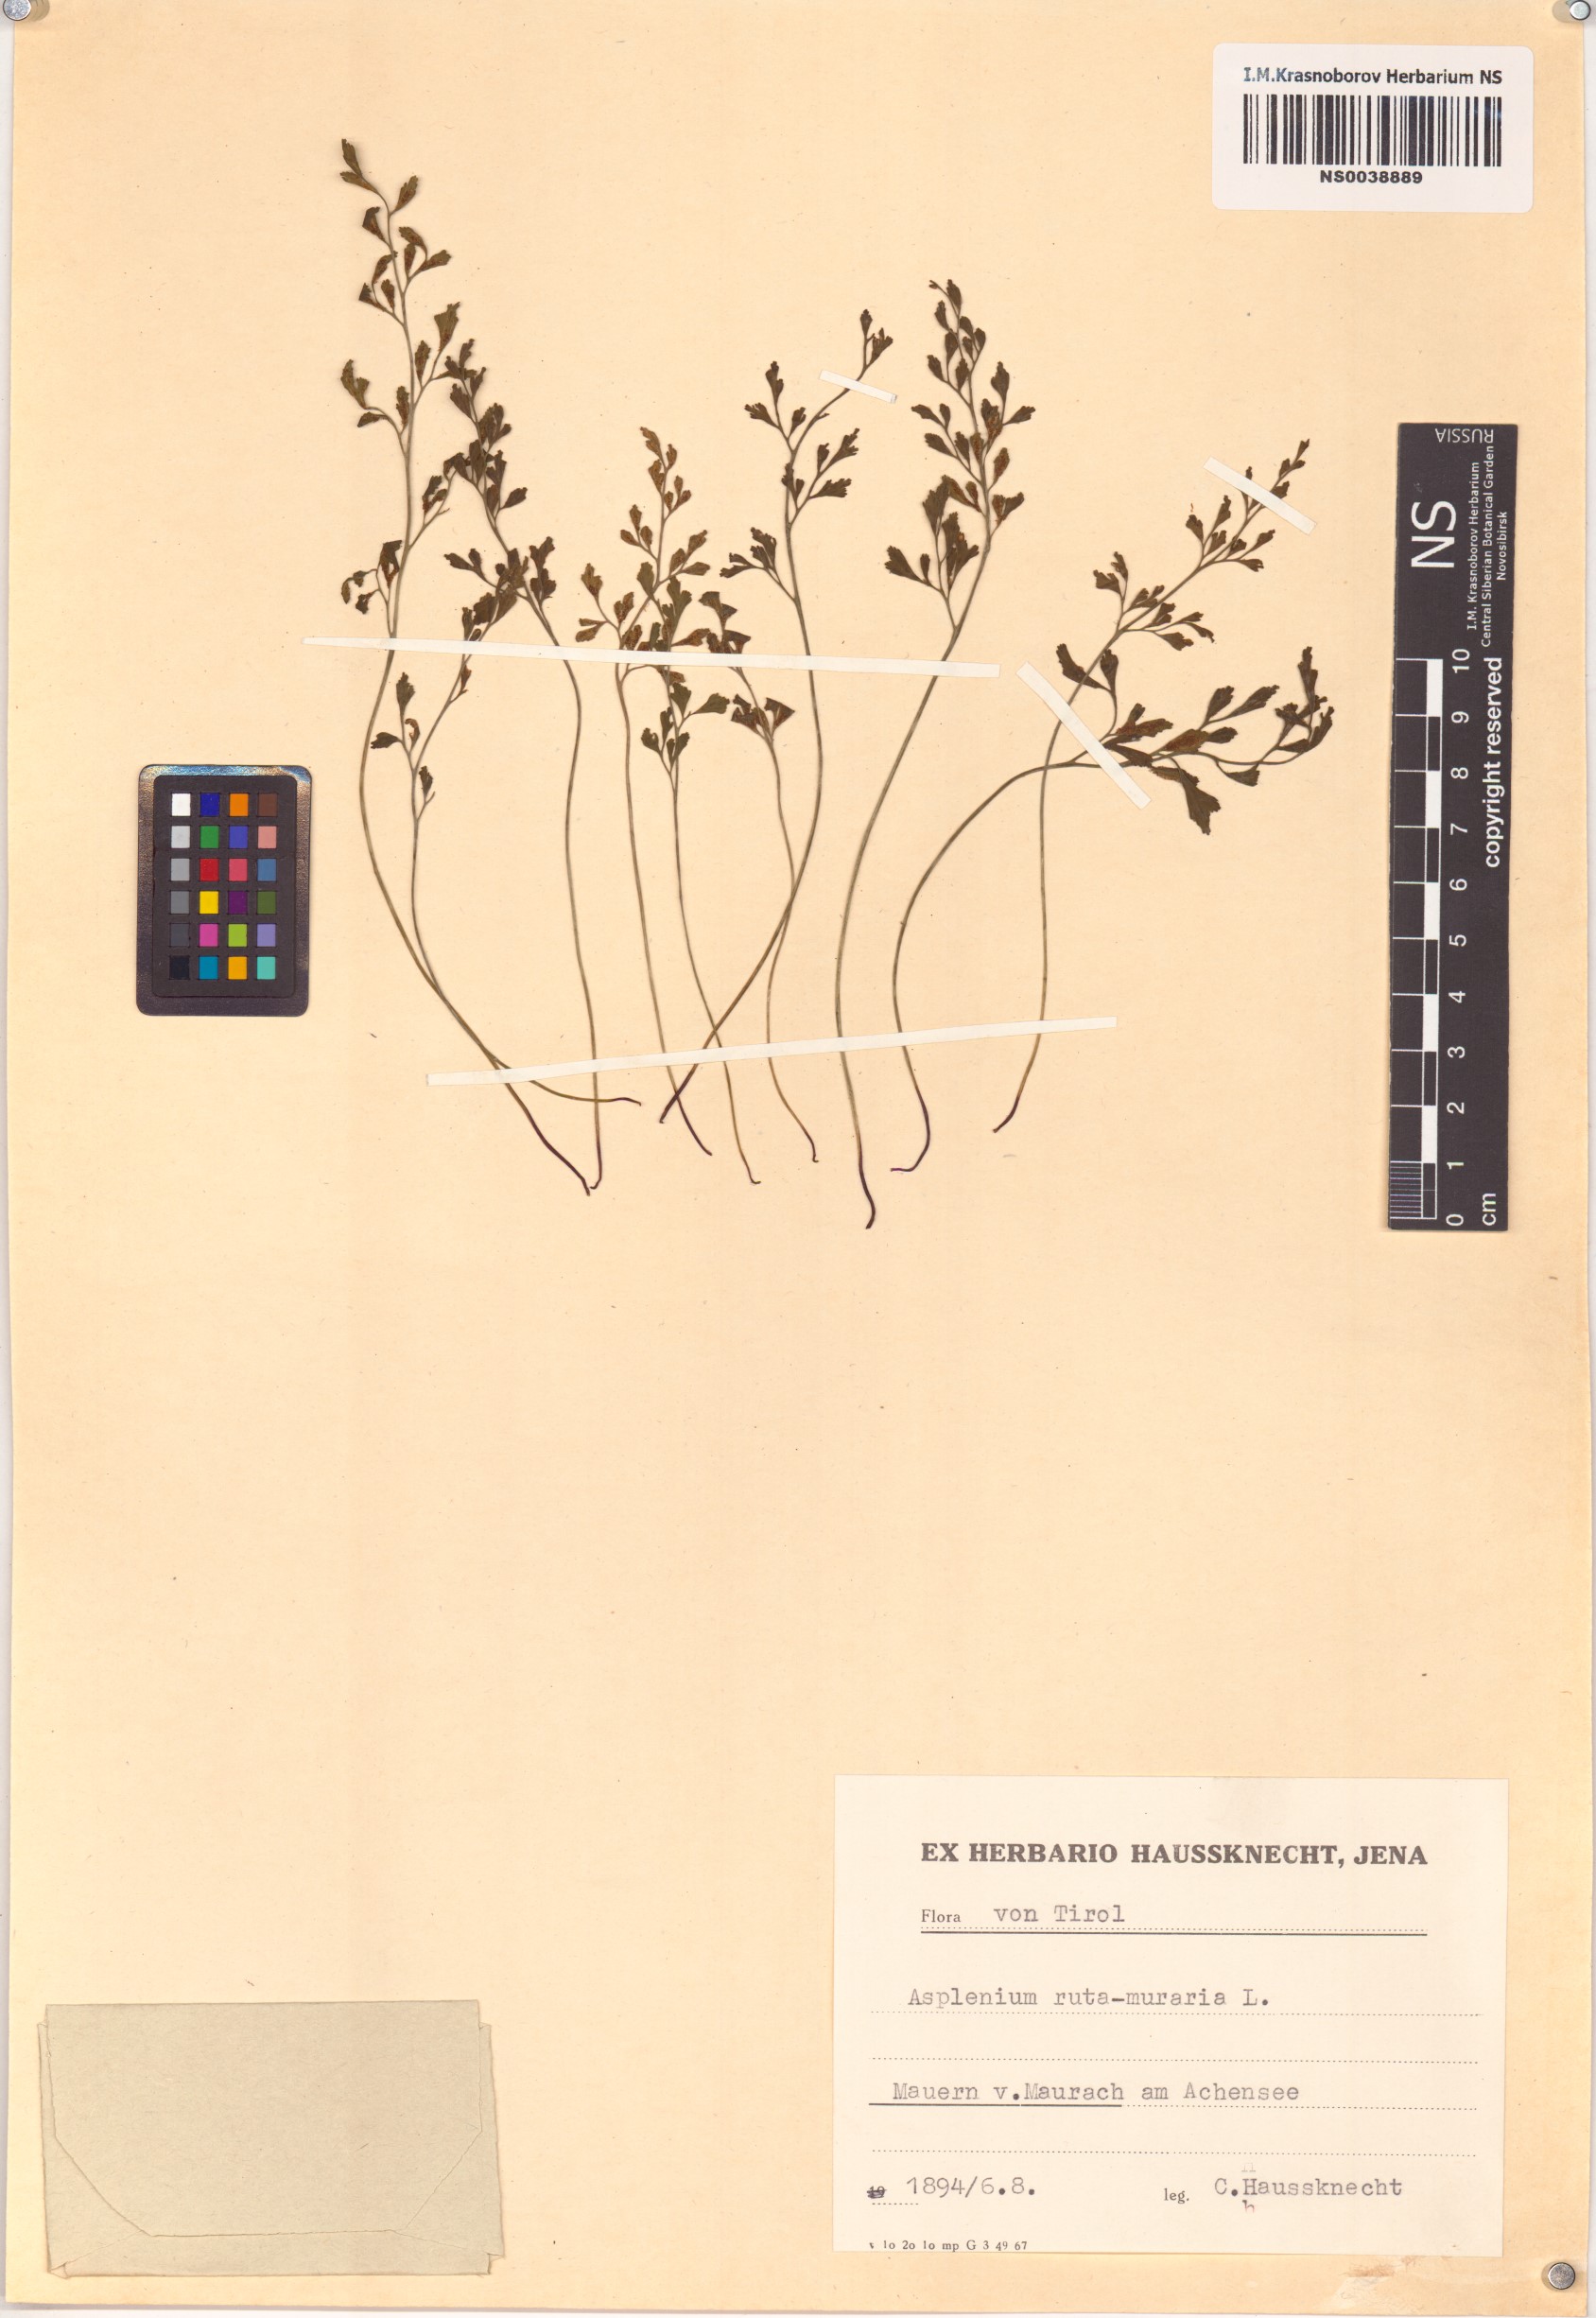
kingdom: Plantae
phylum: Tracheophyta
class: Polypodiopsida
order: Polypodiales
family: Aspleniaceae
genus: Asplenium
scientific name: Asplenium ruta-muraria
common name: Wall-rue
